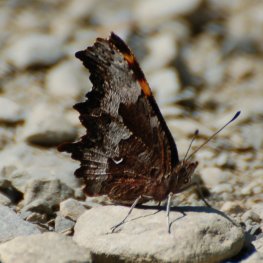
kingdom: Animalia
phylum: Arthropoda
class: Insecta
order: Lepidoptera
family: Nymphalidae
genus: Polygonia
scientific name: Polygonia gracilis
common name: Hoary Comma
